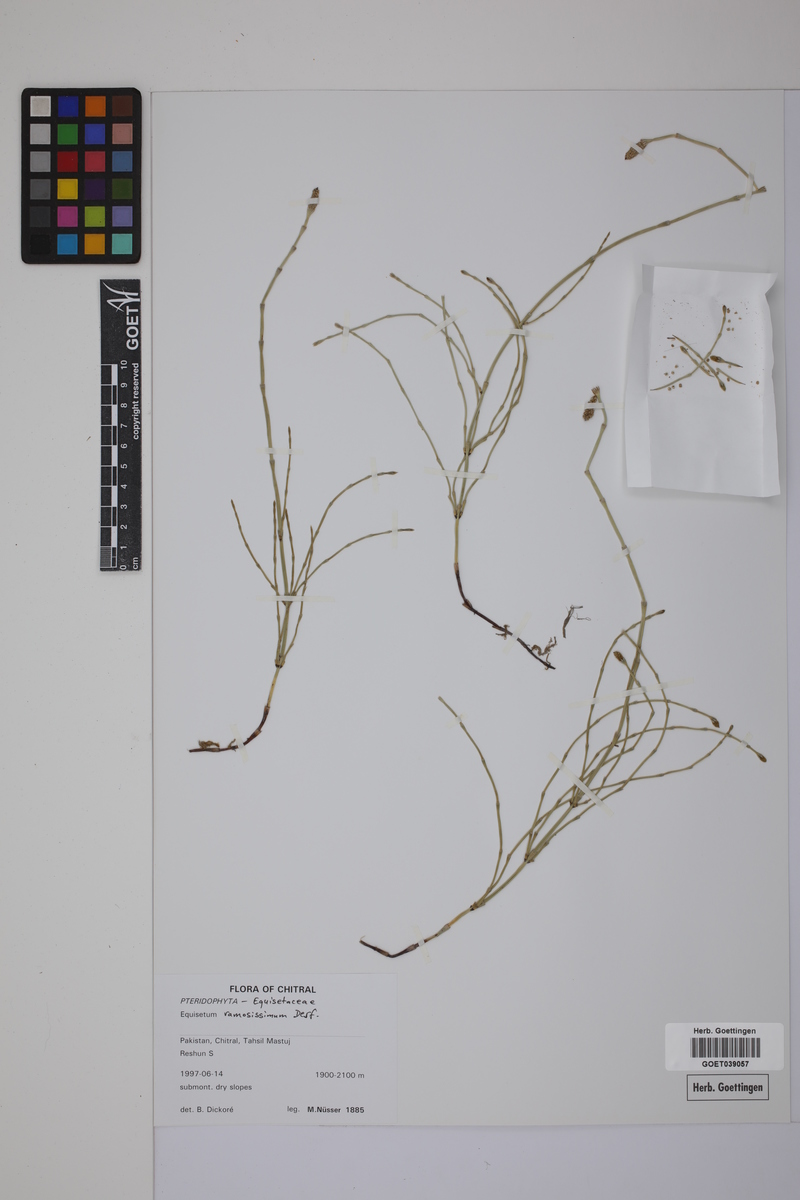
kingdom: Plantae
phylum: Tracheophyta
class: Polypodiopsida
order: Equisetales
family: Equisetaceae
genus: Equisetum
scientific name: Equisetum giganteum
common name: Giant horsetail
